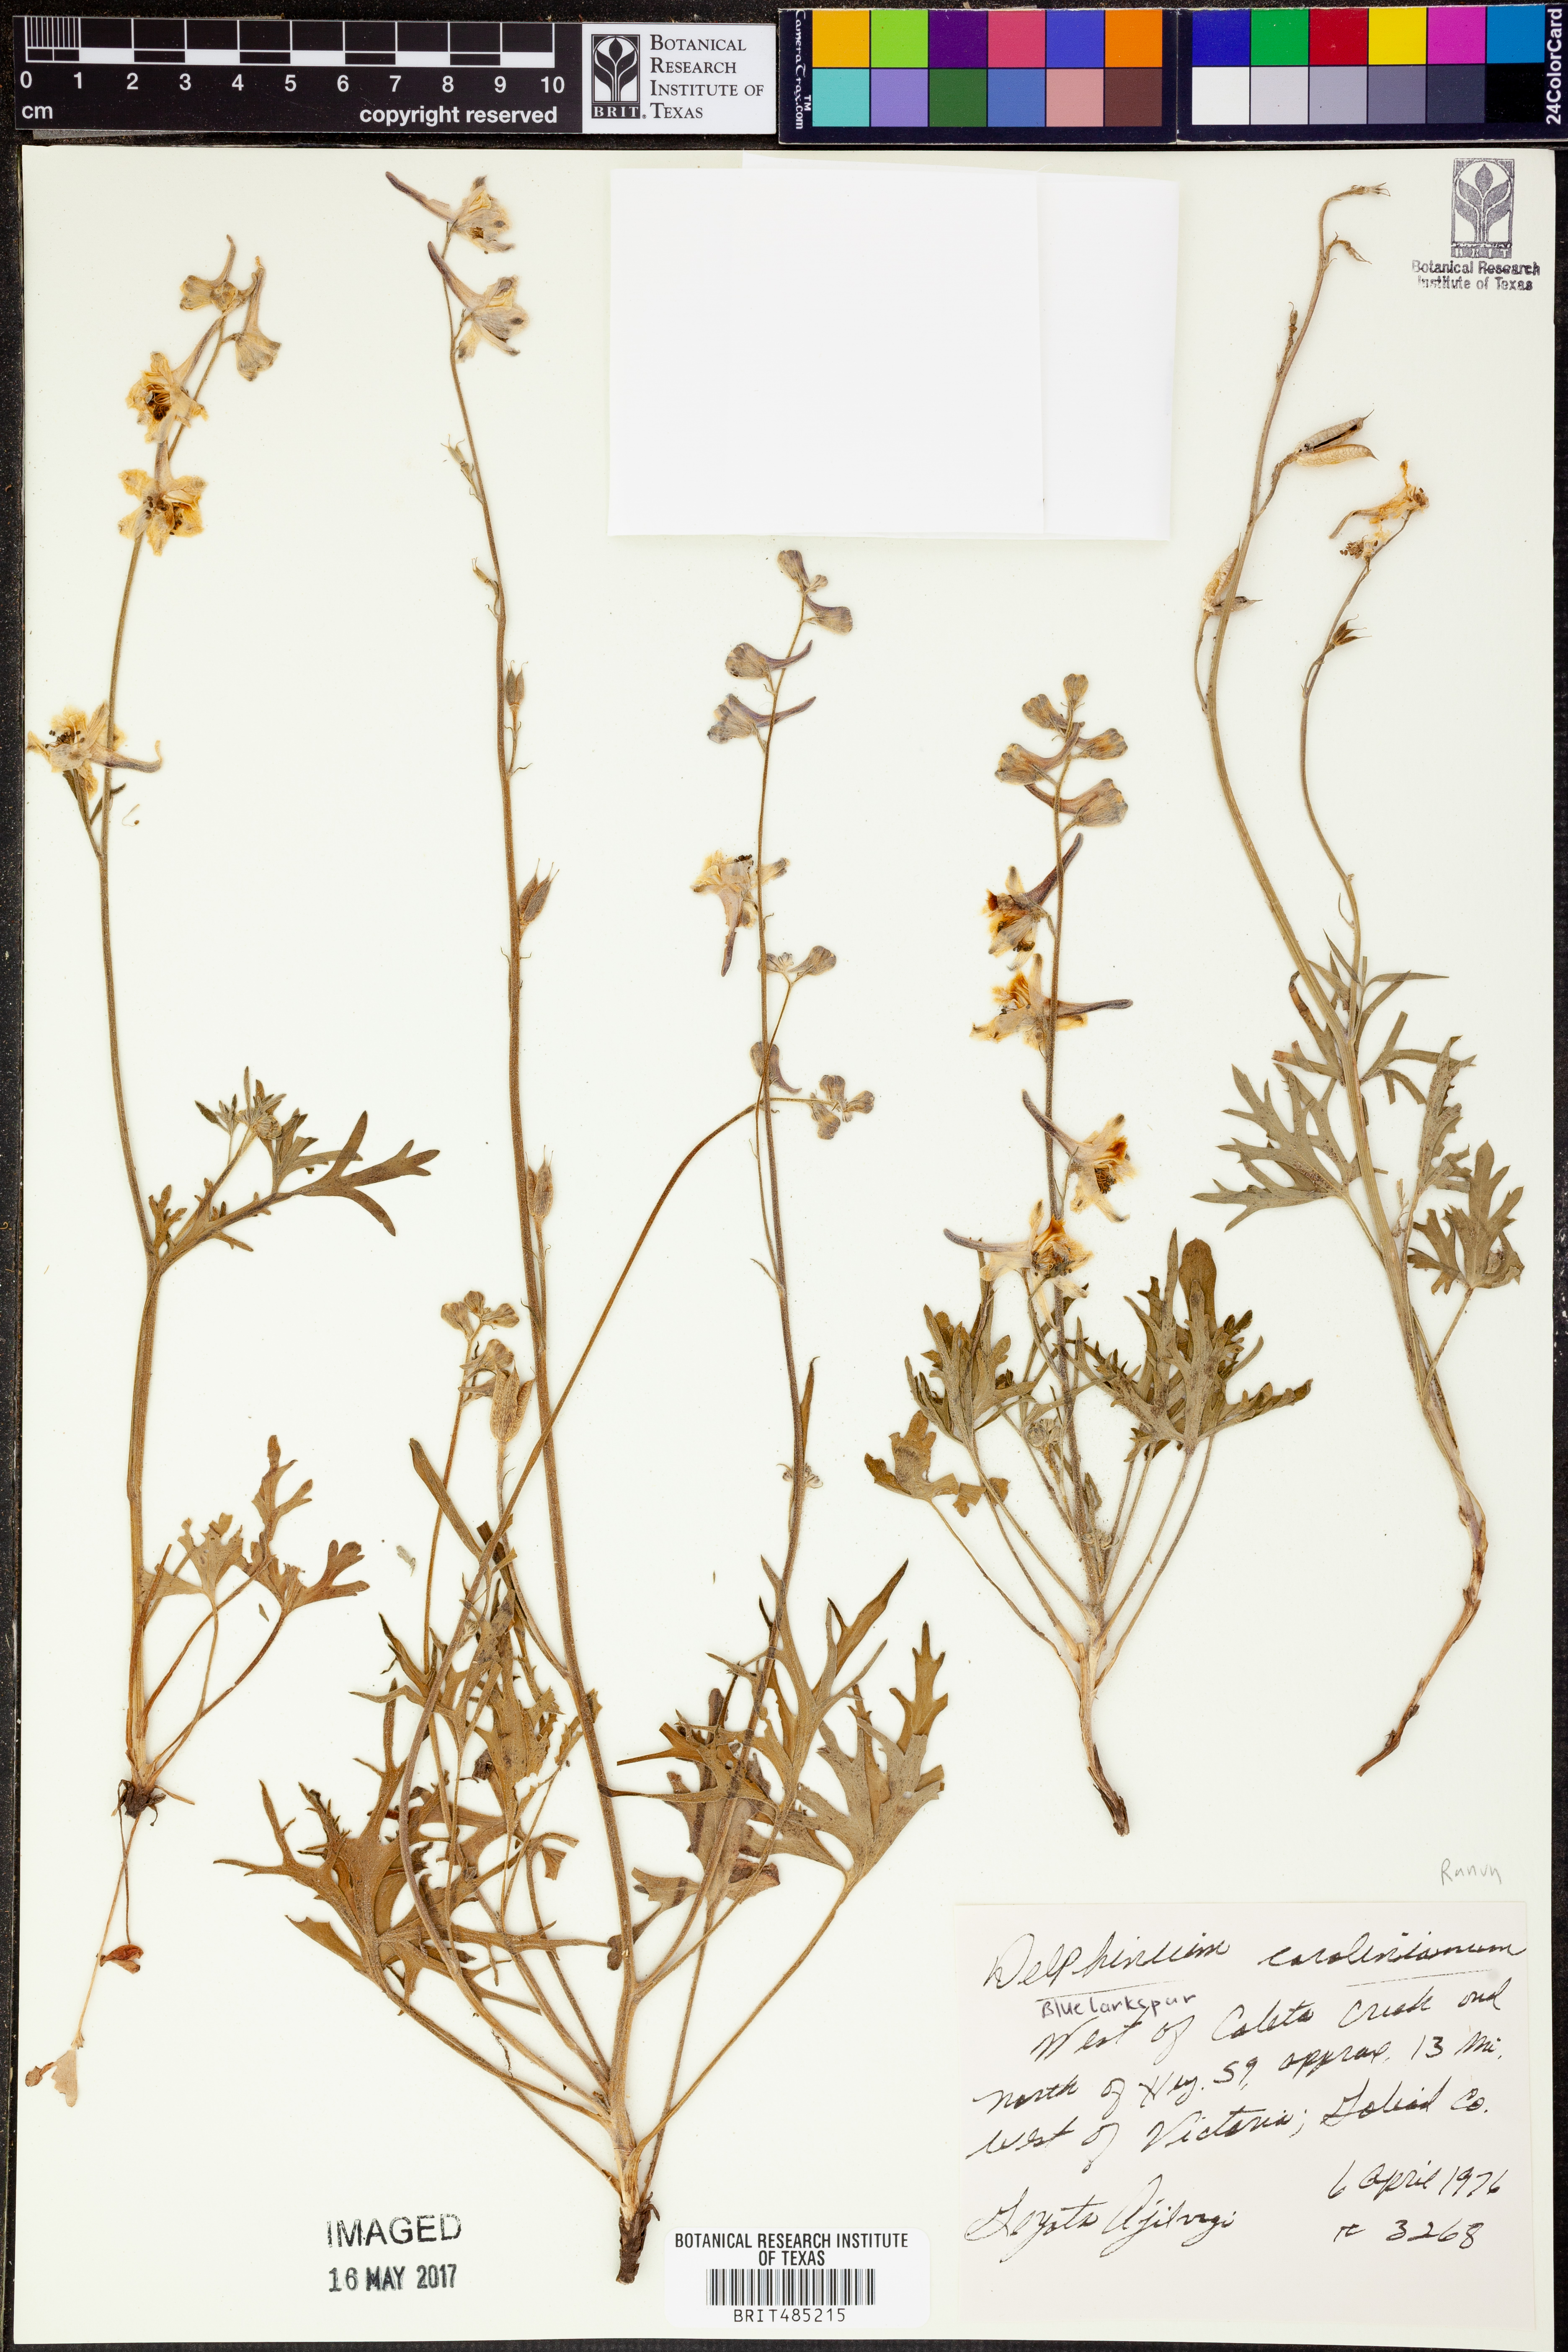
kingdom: Plantae
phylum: Tracheophyta
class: Magnoliopsida
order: Ranunculales
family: Ranunculaceae
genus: Delphinium
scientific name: Delphinium carolinianum
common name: Carolina larkspur
